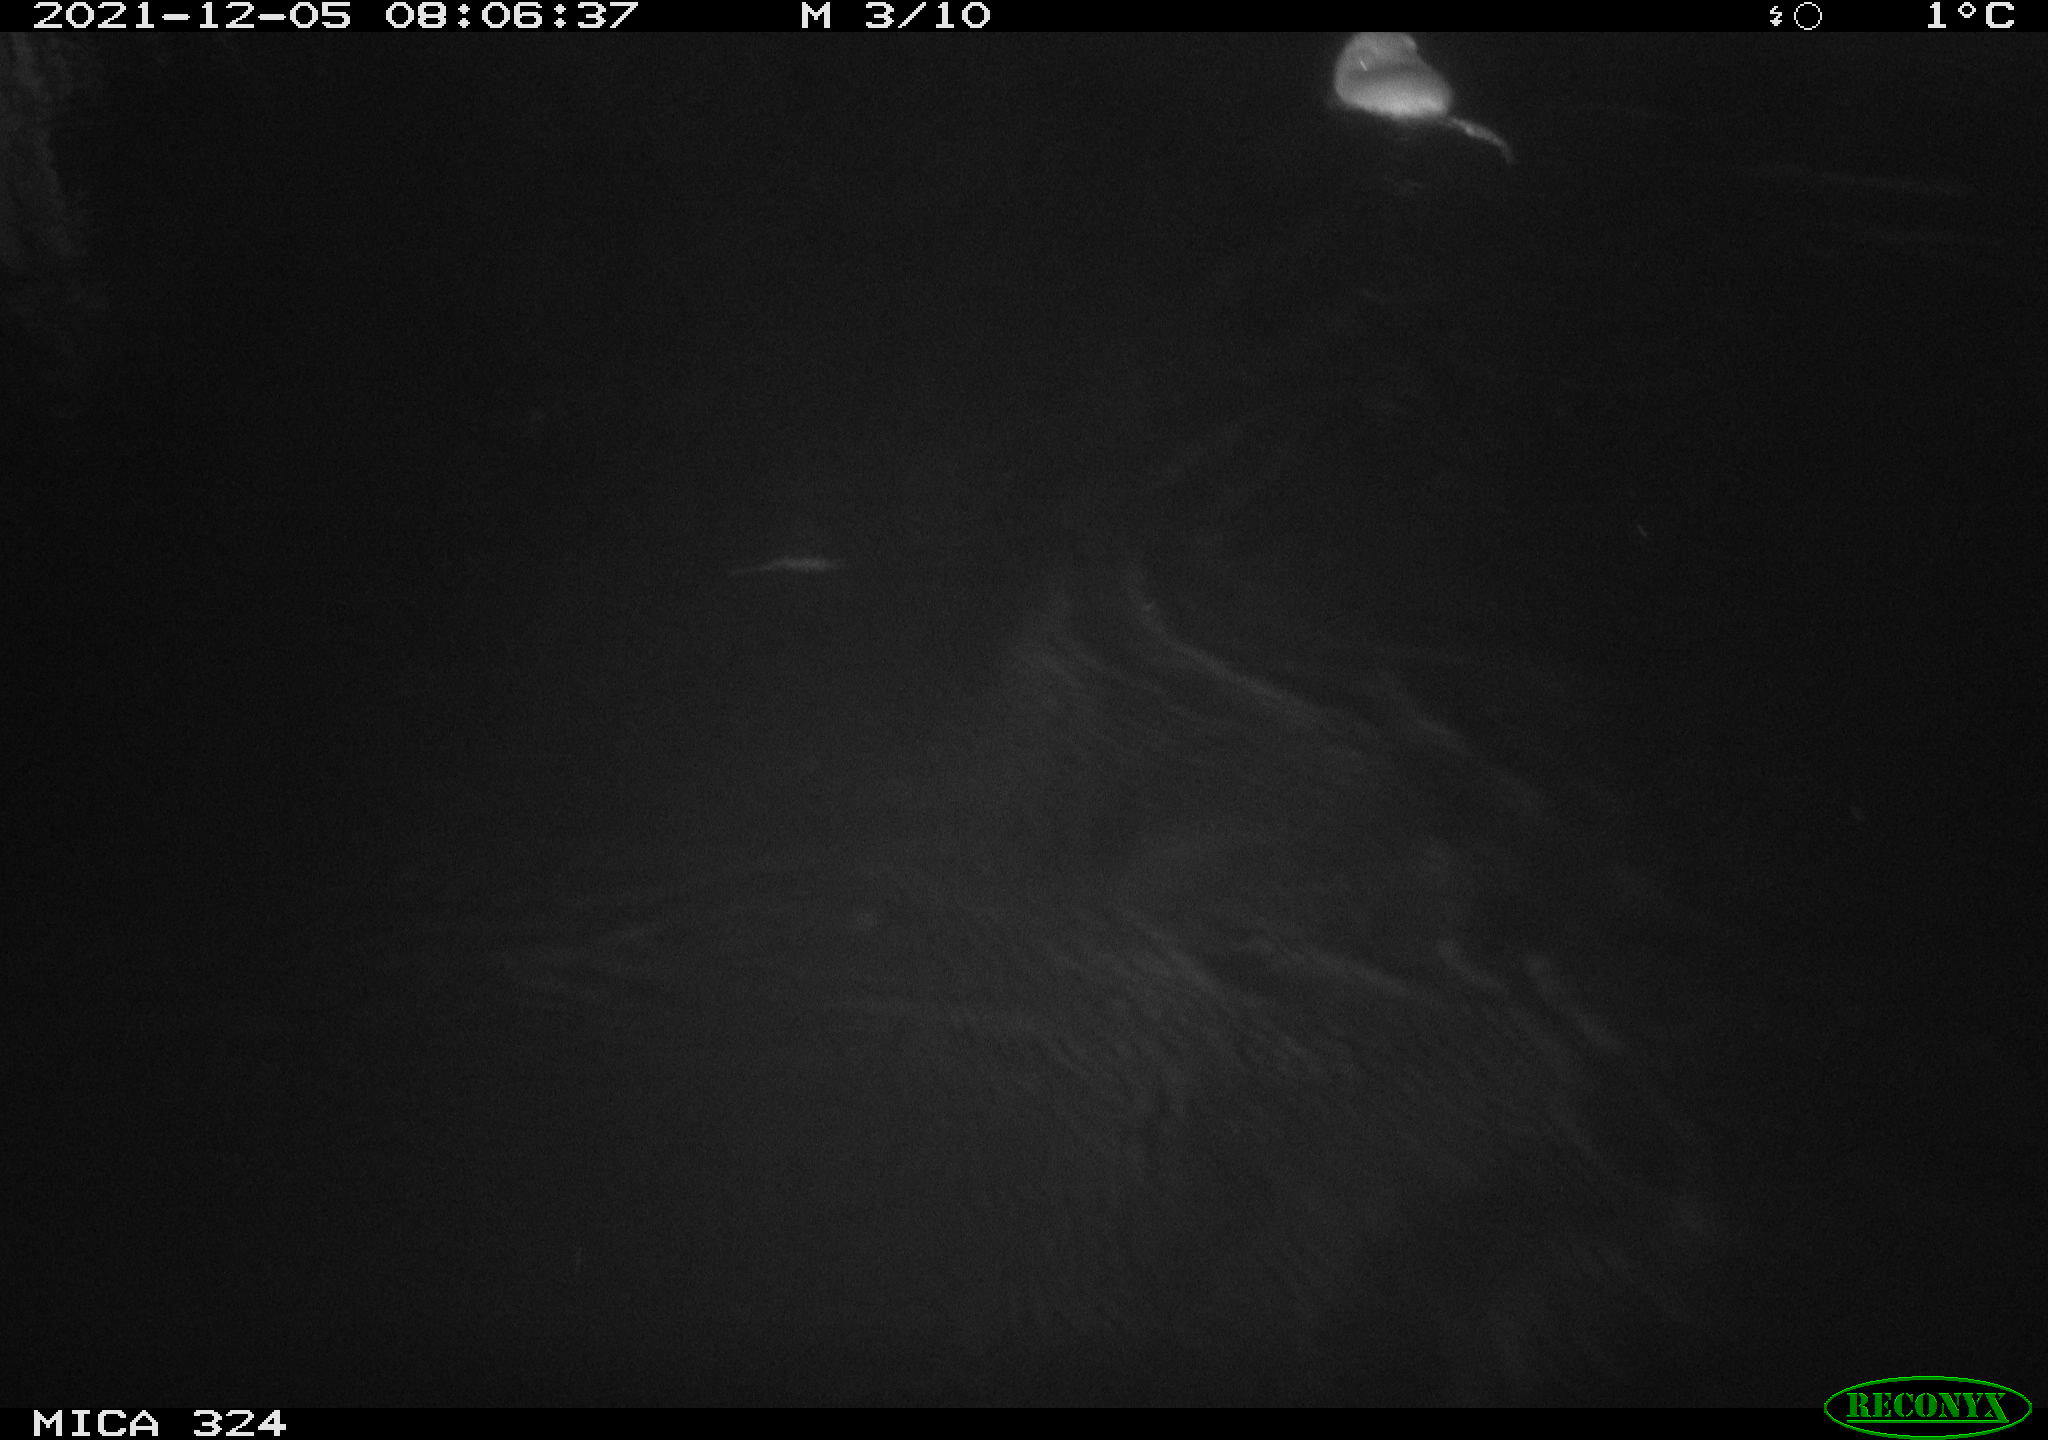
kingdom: Animalia
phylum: Chordata
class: Mammalia
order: Rodentia
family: Cricetidae
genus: Ondatra
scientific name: Ondatra zibethicus
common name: Muskrat
